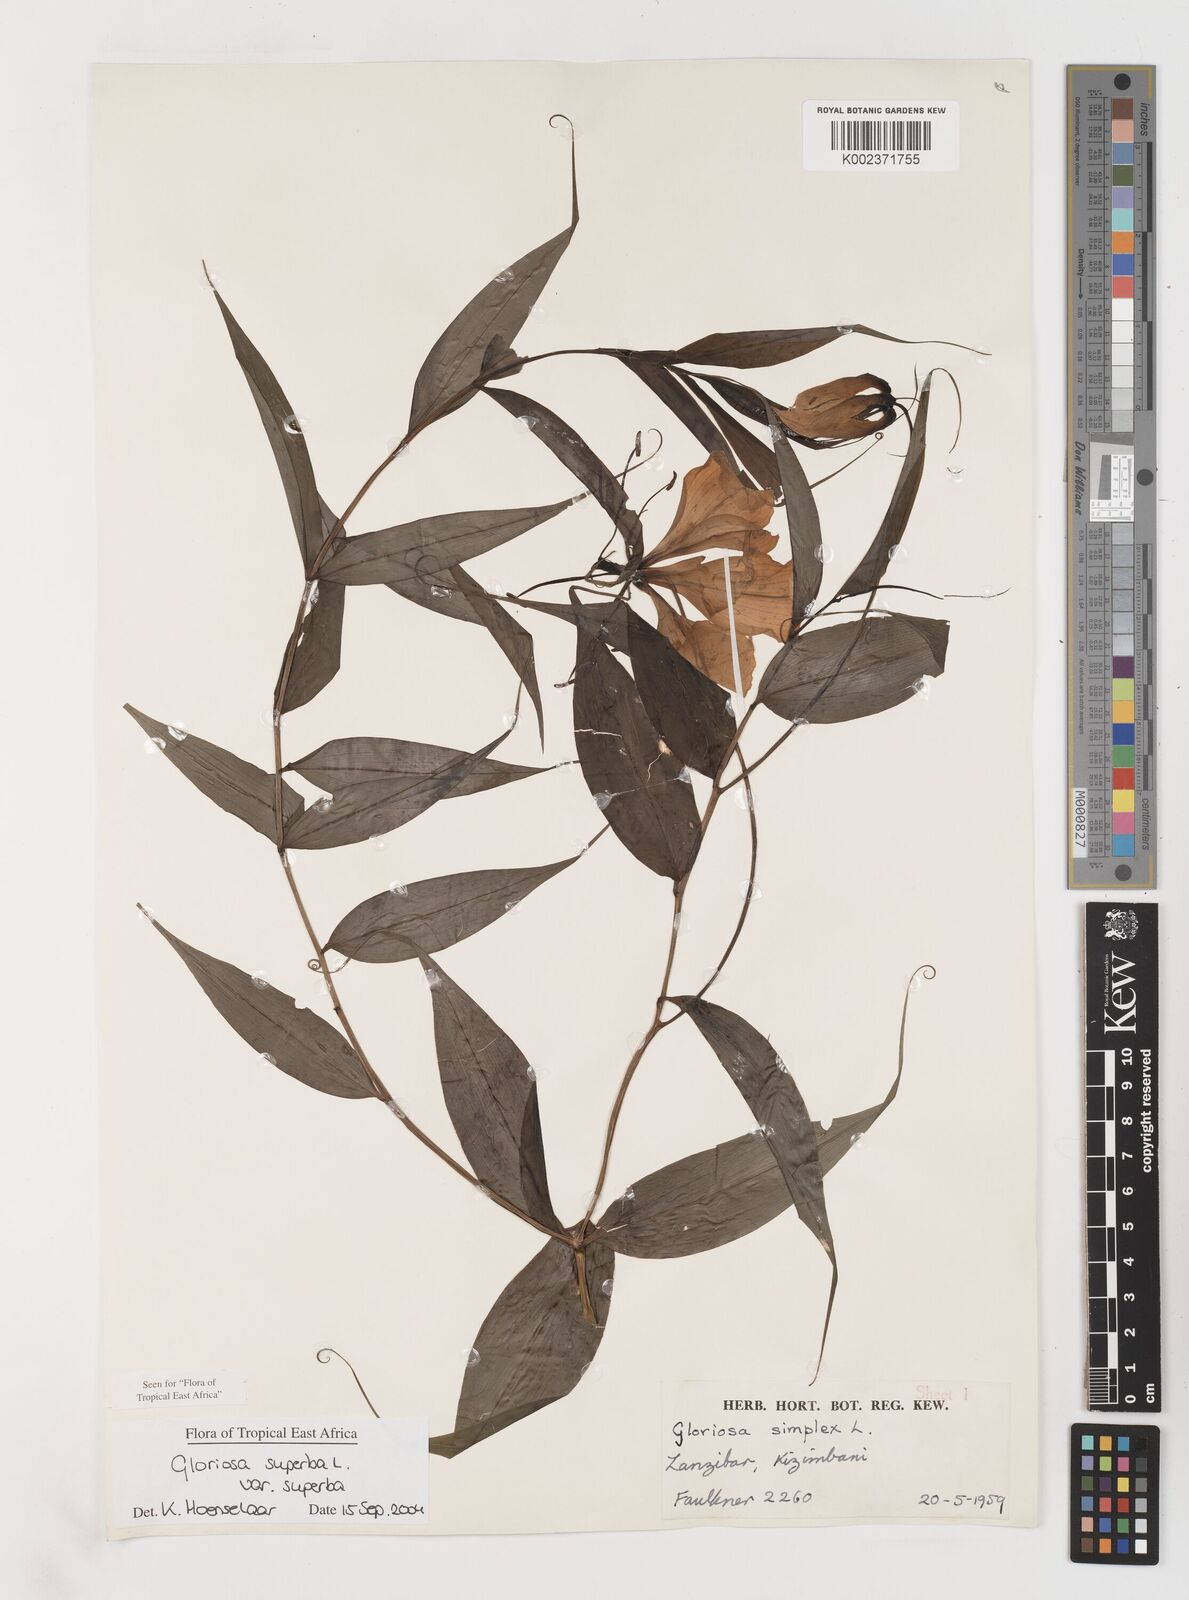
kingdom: Plantae
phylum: Tracheophyta
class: Liliopsida
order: Liliales
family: Colchicaceae
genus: Gloriosa
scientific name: Gloriosa simplex
